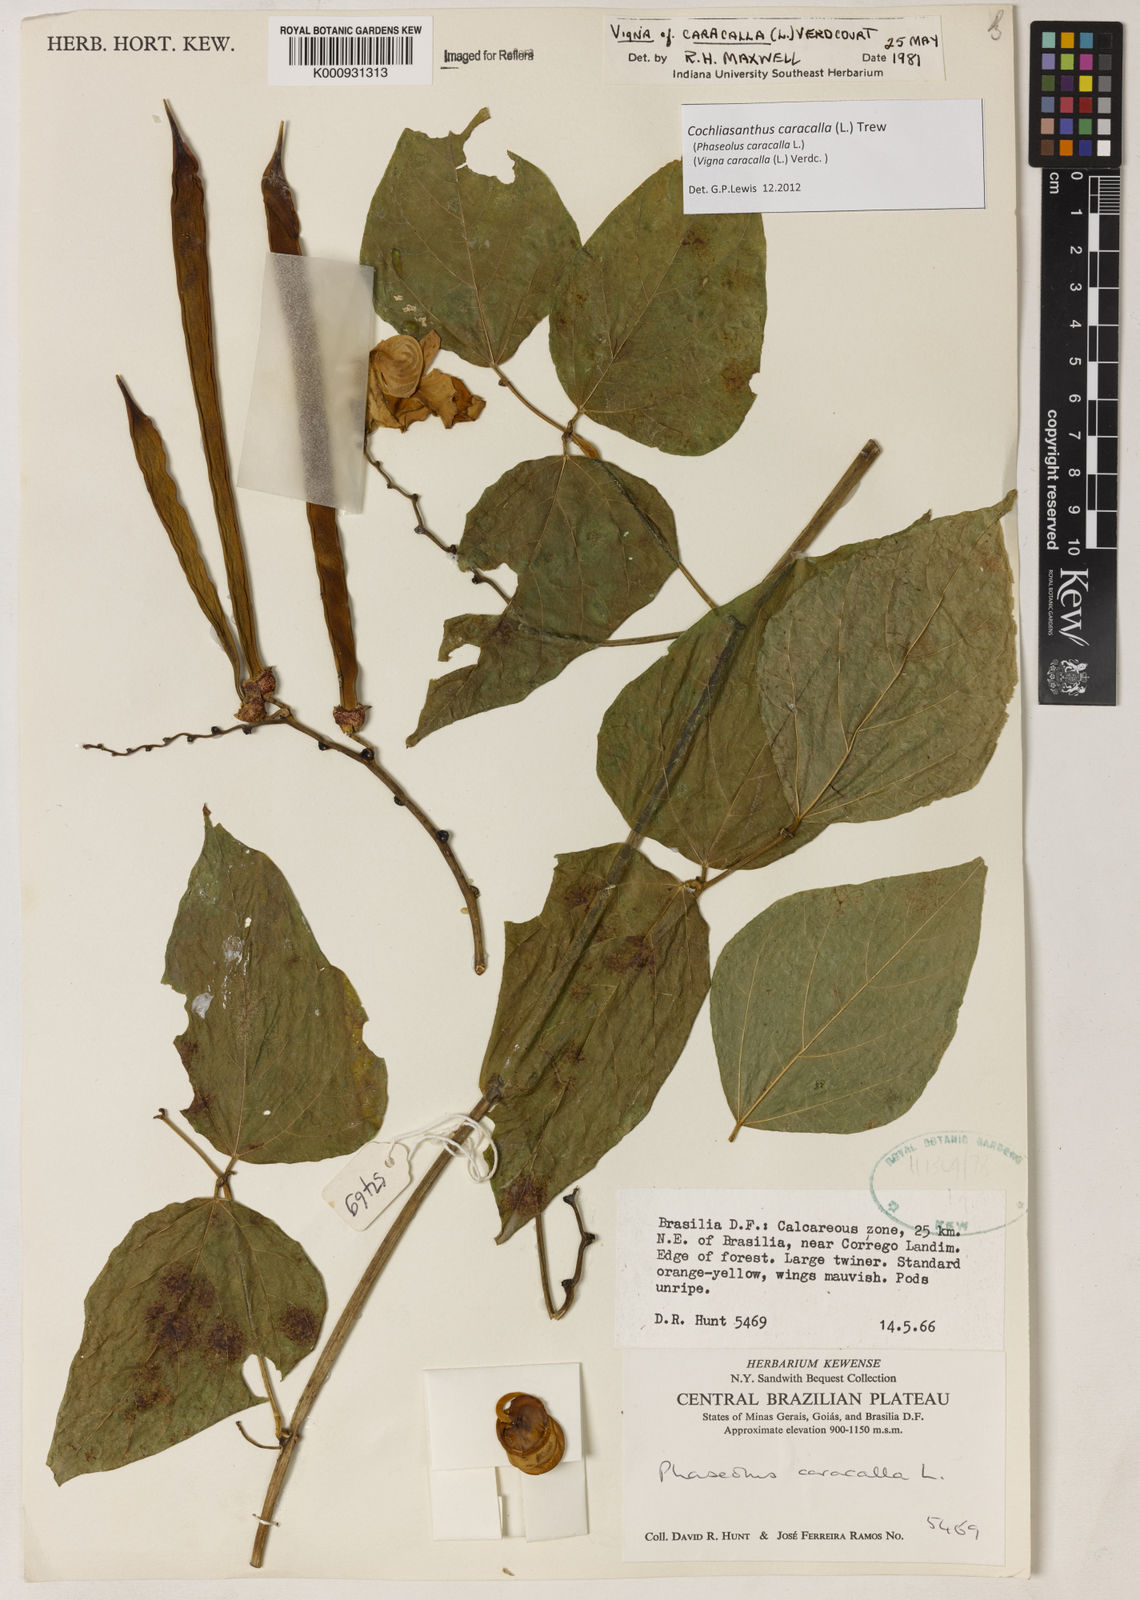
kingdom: Plantae
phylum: Tracheophyta
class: Magnoliopsida
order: Fabales
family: Fabaceae
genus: Cochliasanthus
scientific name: Cochliasanthus caracalla
